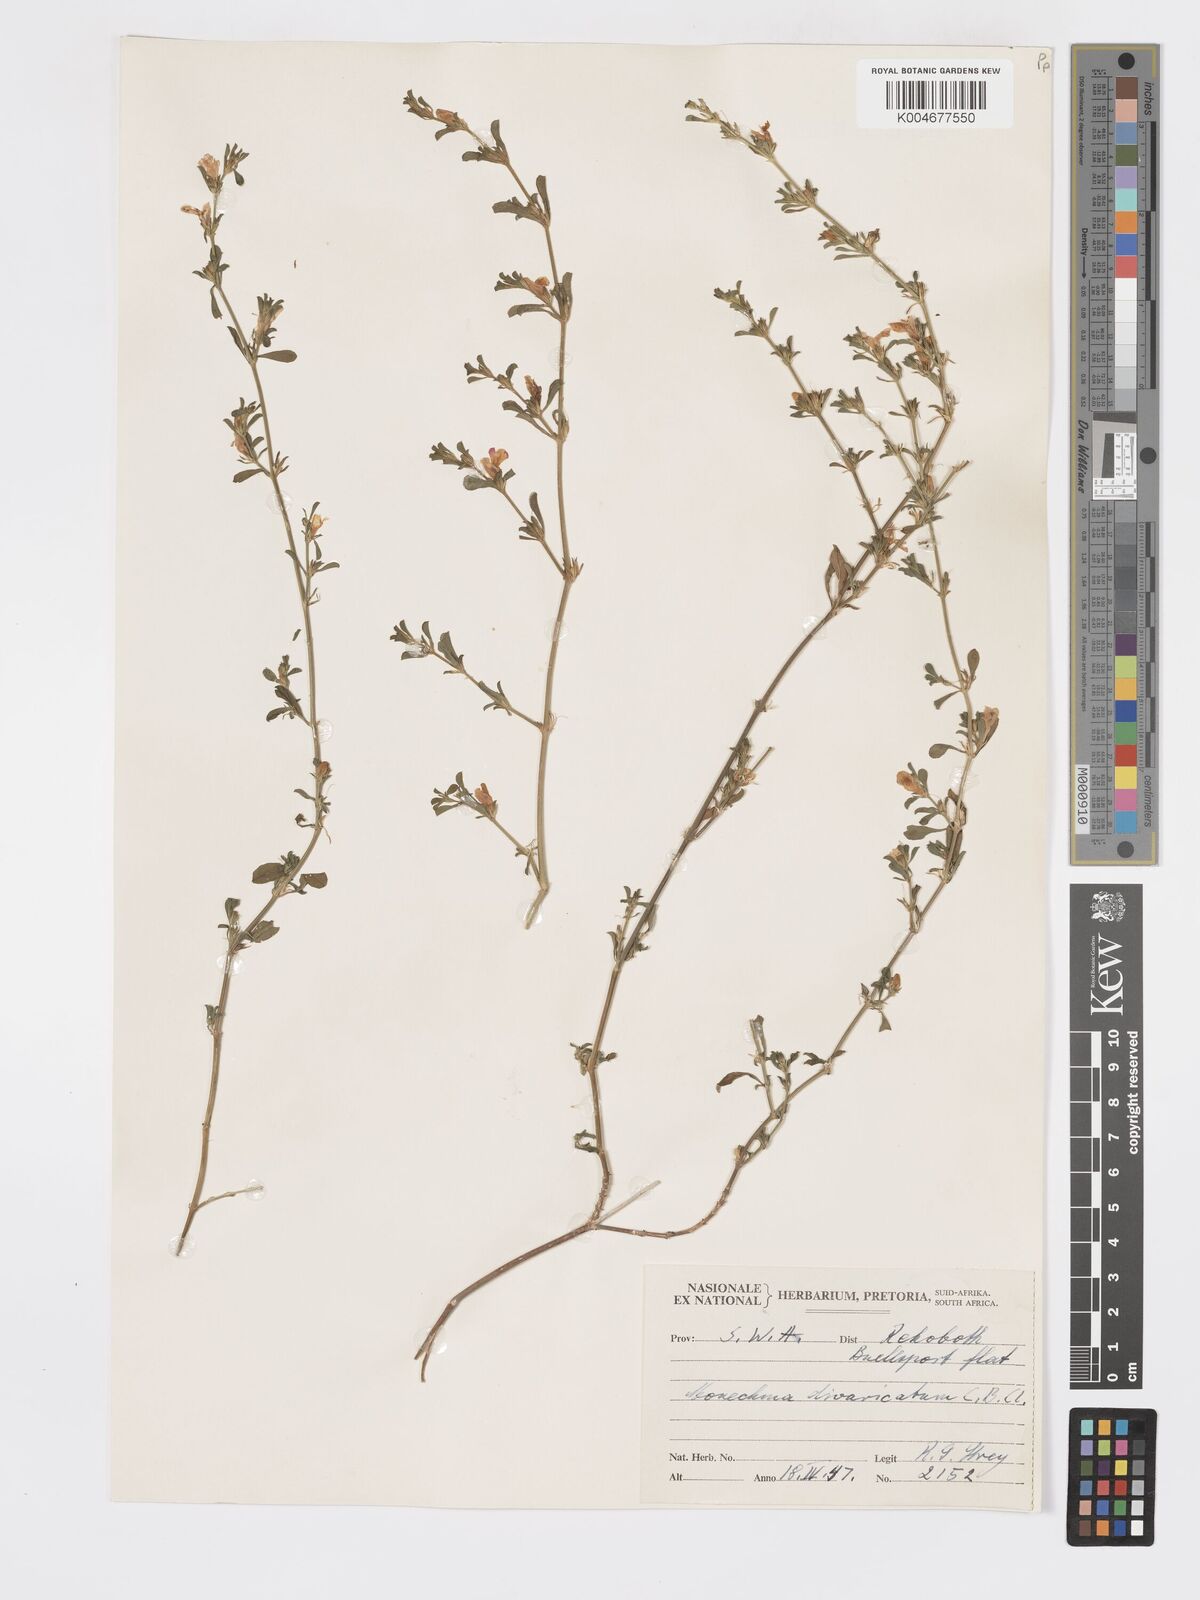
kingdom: Plantae
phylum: Tracheophyta
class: Magnoliopsida
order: Lamiales
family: Acanthaceae
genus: Pogonospermum
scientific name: Pogonospermum
